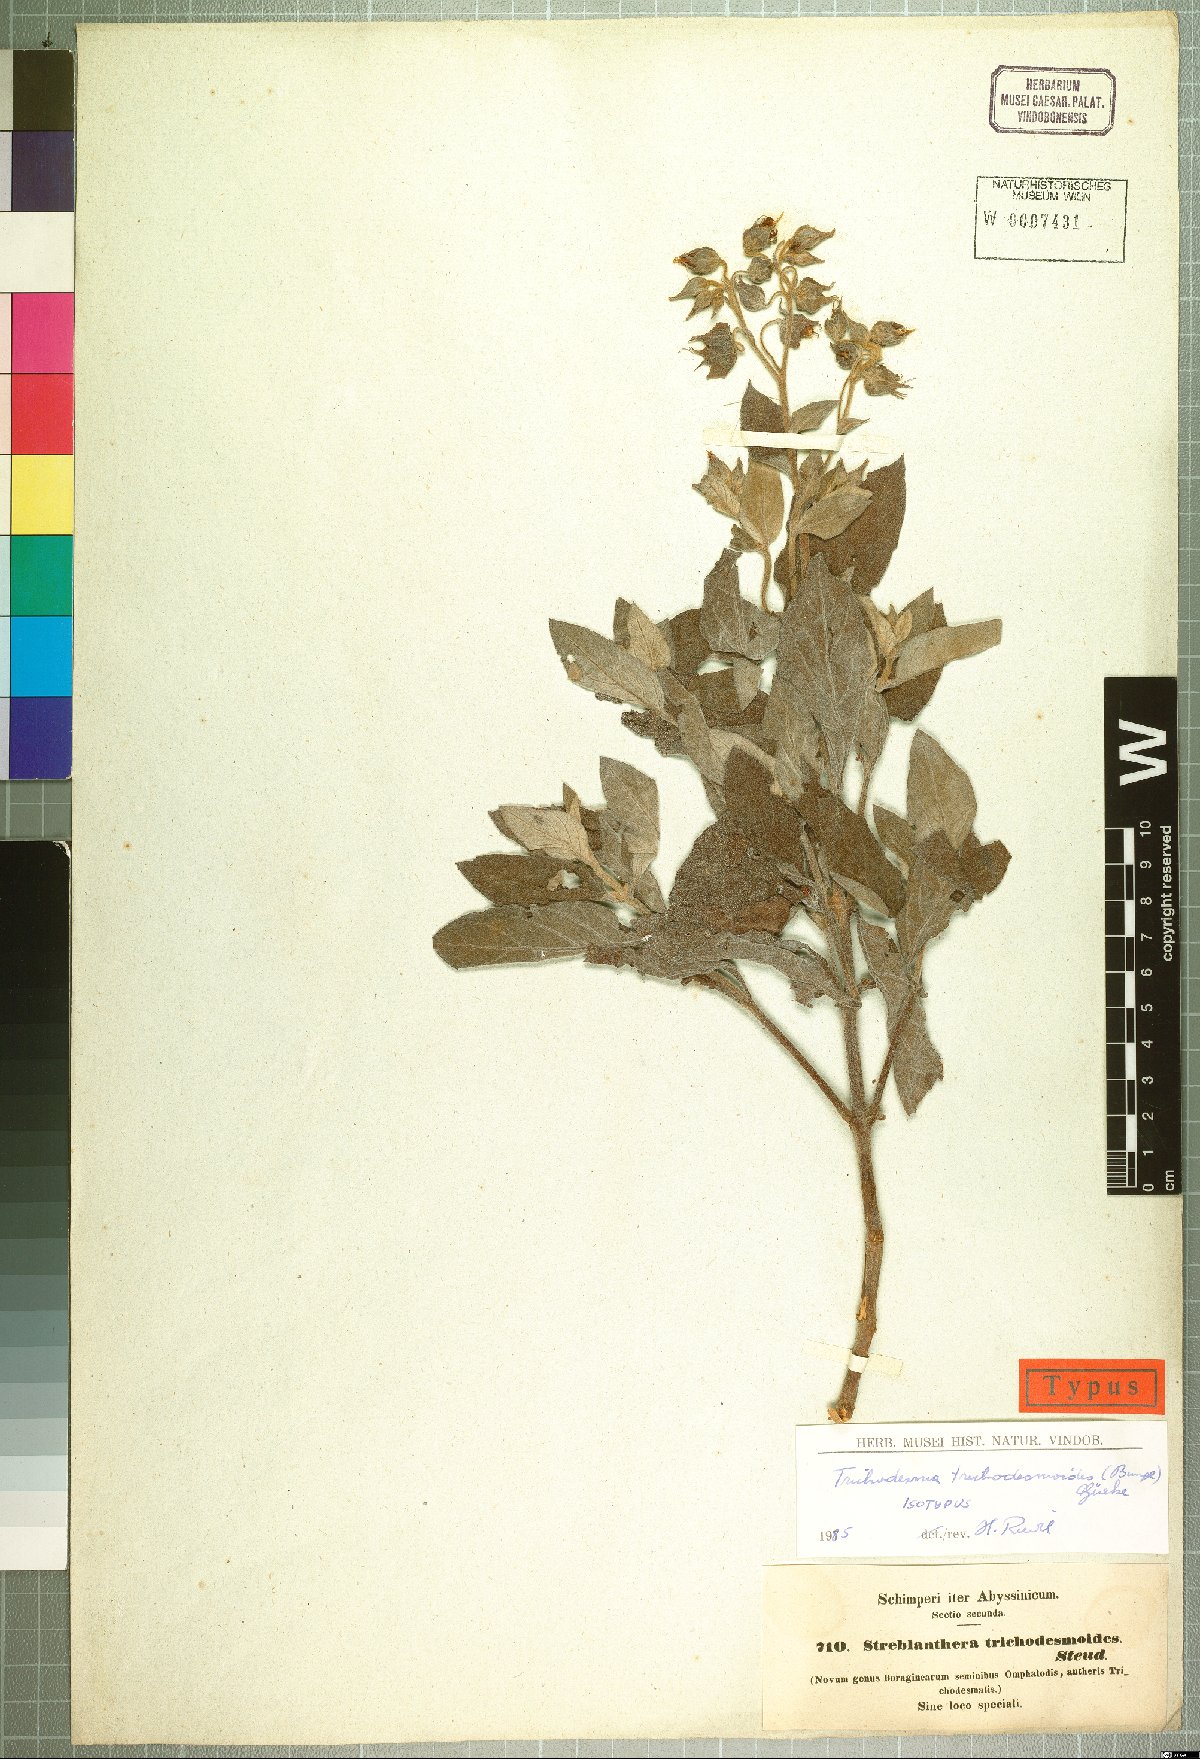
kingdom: Plantae
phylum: Tracheophyta
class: Magnoliopsida
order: Boraginales
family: Boraginaceae
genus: Trichodesma
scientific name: Trichodesma trichodesmoides
